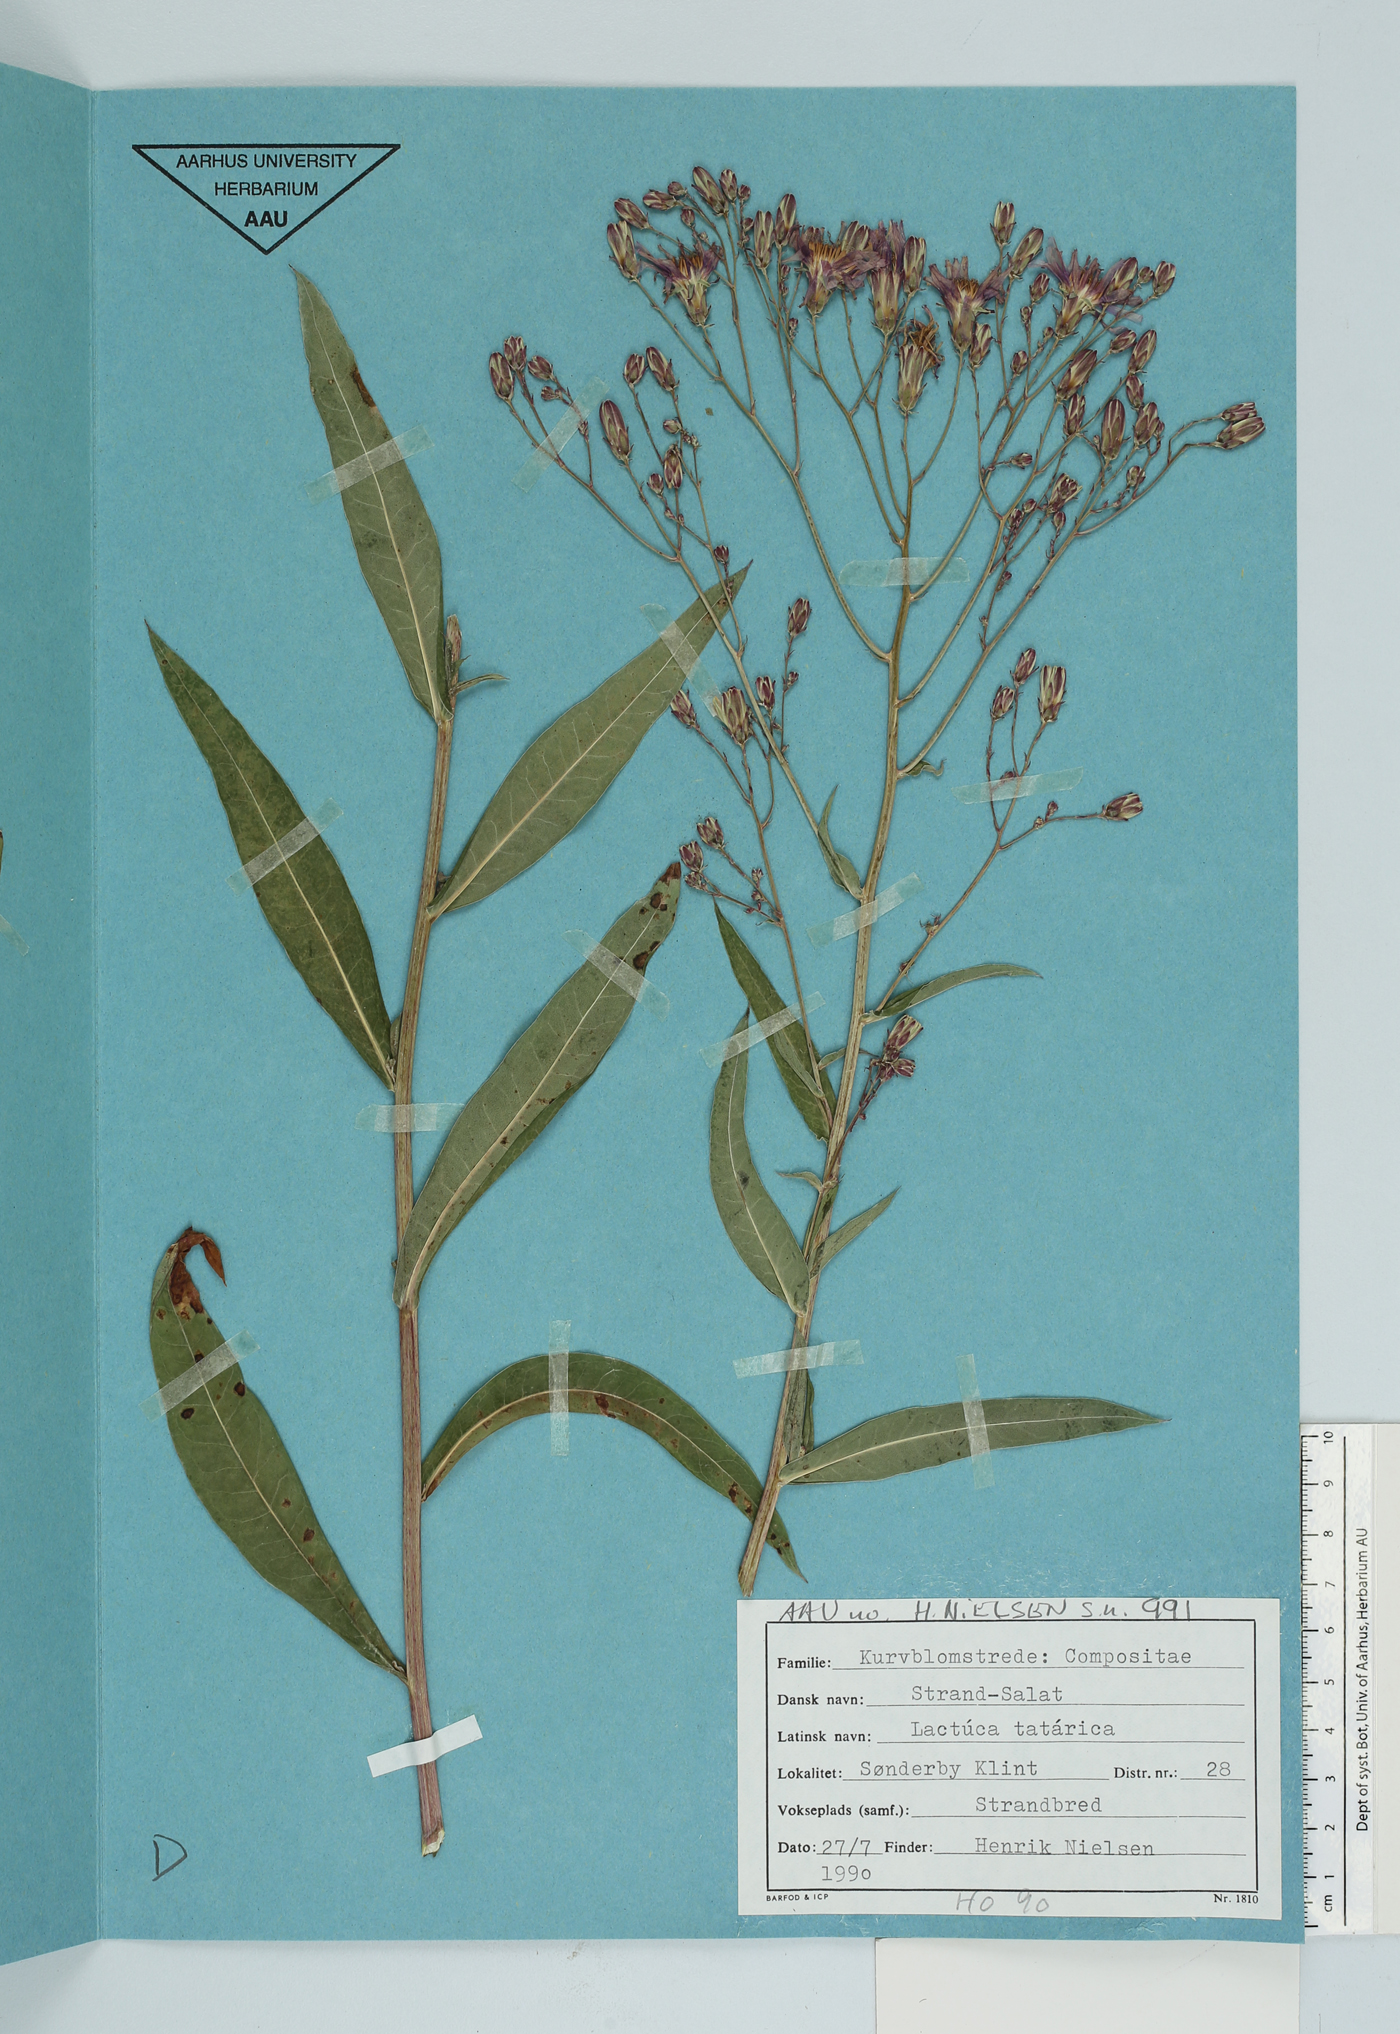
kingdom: Plantae
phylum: Tracheophyta
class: Magnoliopsida
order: Asterales
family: Asteraceae
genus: Lactuca
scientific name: Lactuca tatarica
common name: Blue lettuce
